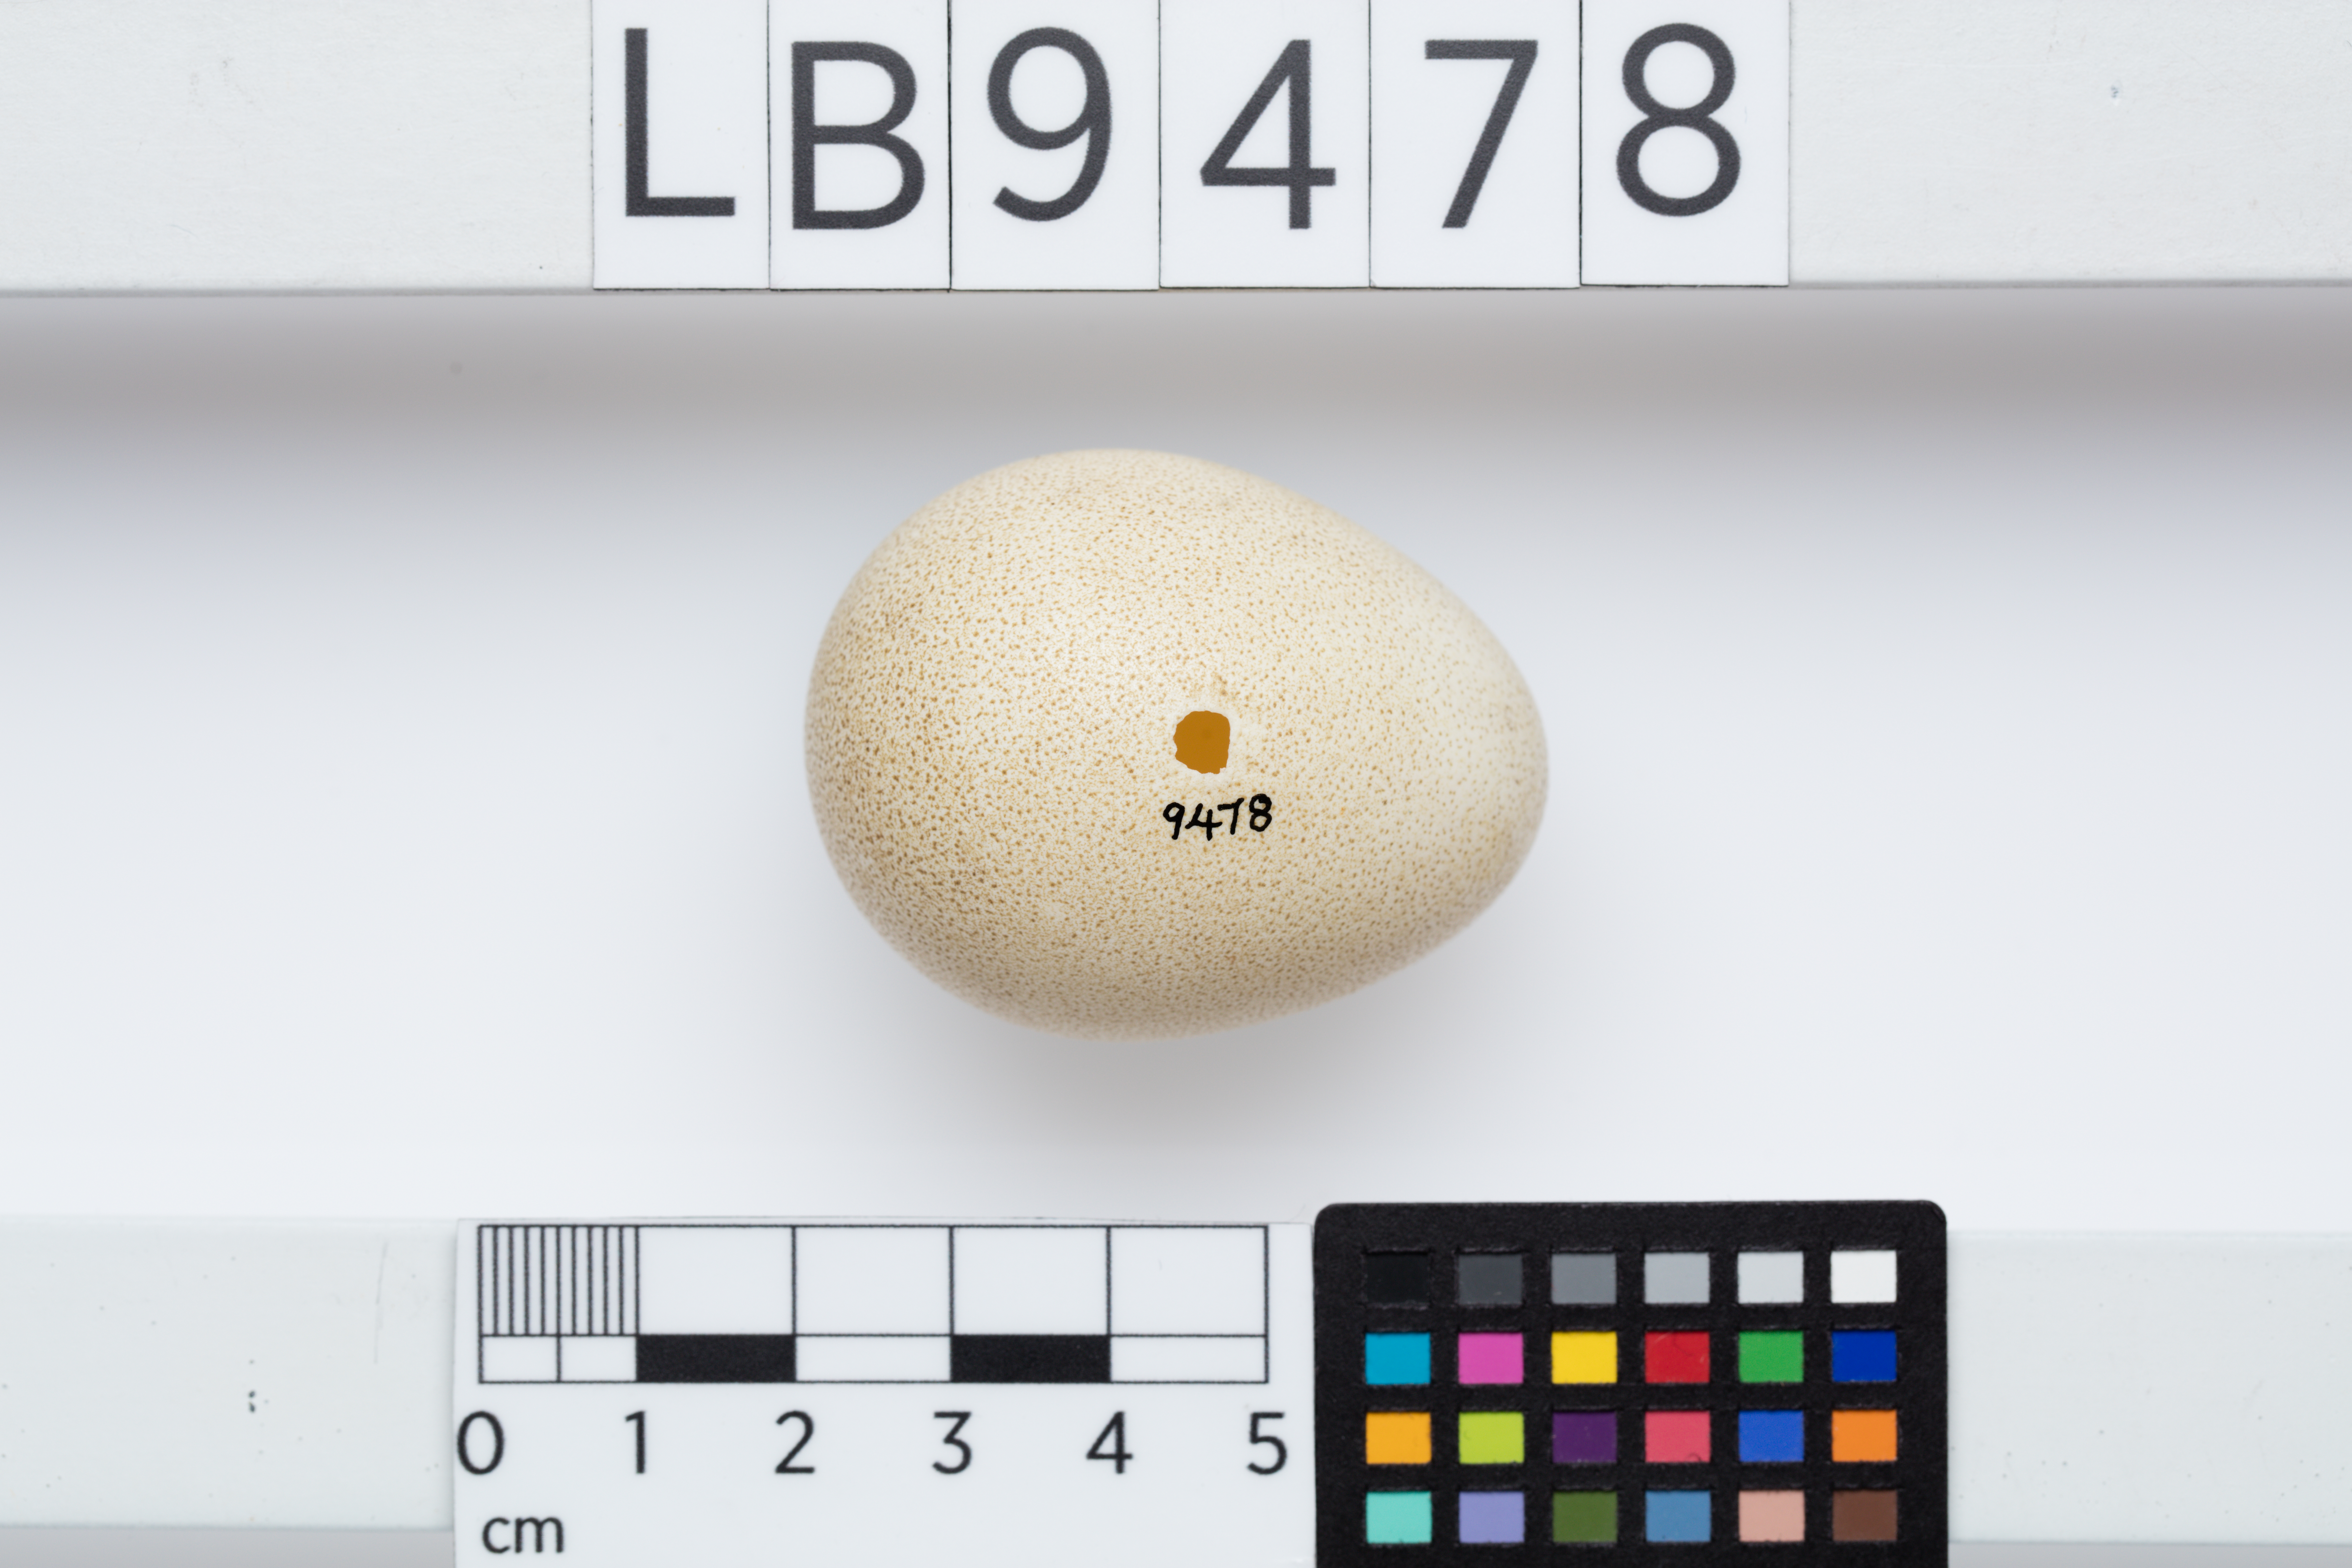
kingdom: Animalia
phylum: Chordata
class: Aves
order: Galliformes
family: Numididae
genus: Numida
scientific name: Numida meleagris
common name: Helmeted guineafowl
